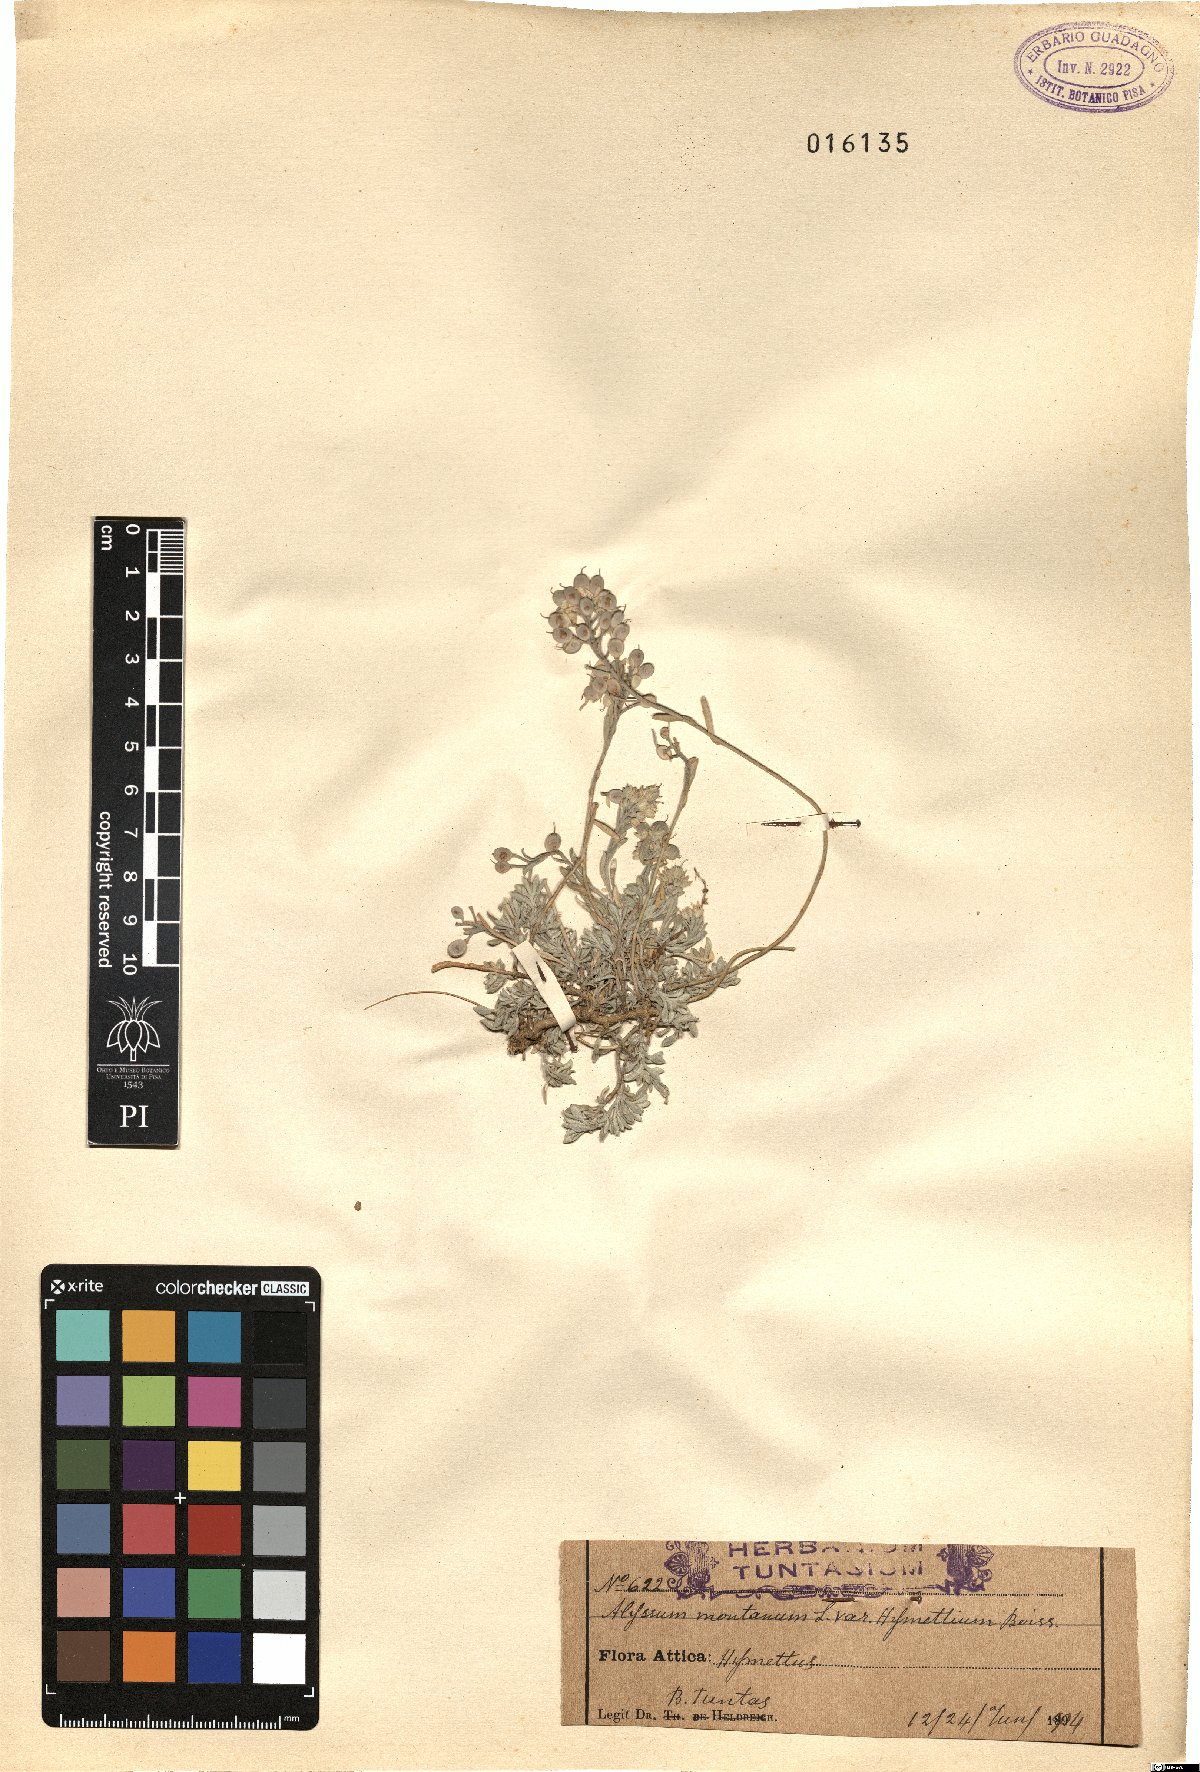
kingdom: Plantae
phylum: Tracheophyta
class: Magnoliopsida
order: Brassicales
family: Brassicaceae
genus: Alyssum
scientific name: Alyssum montanum
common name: Mountain alison
